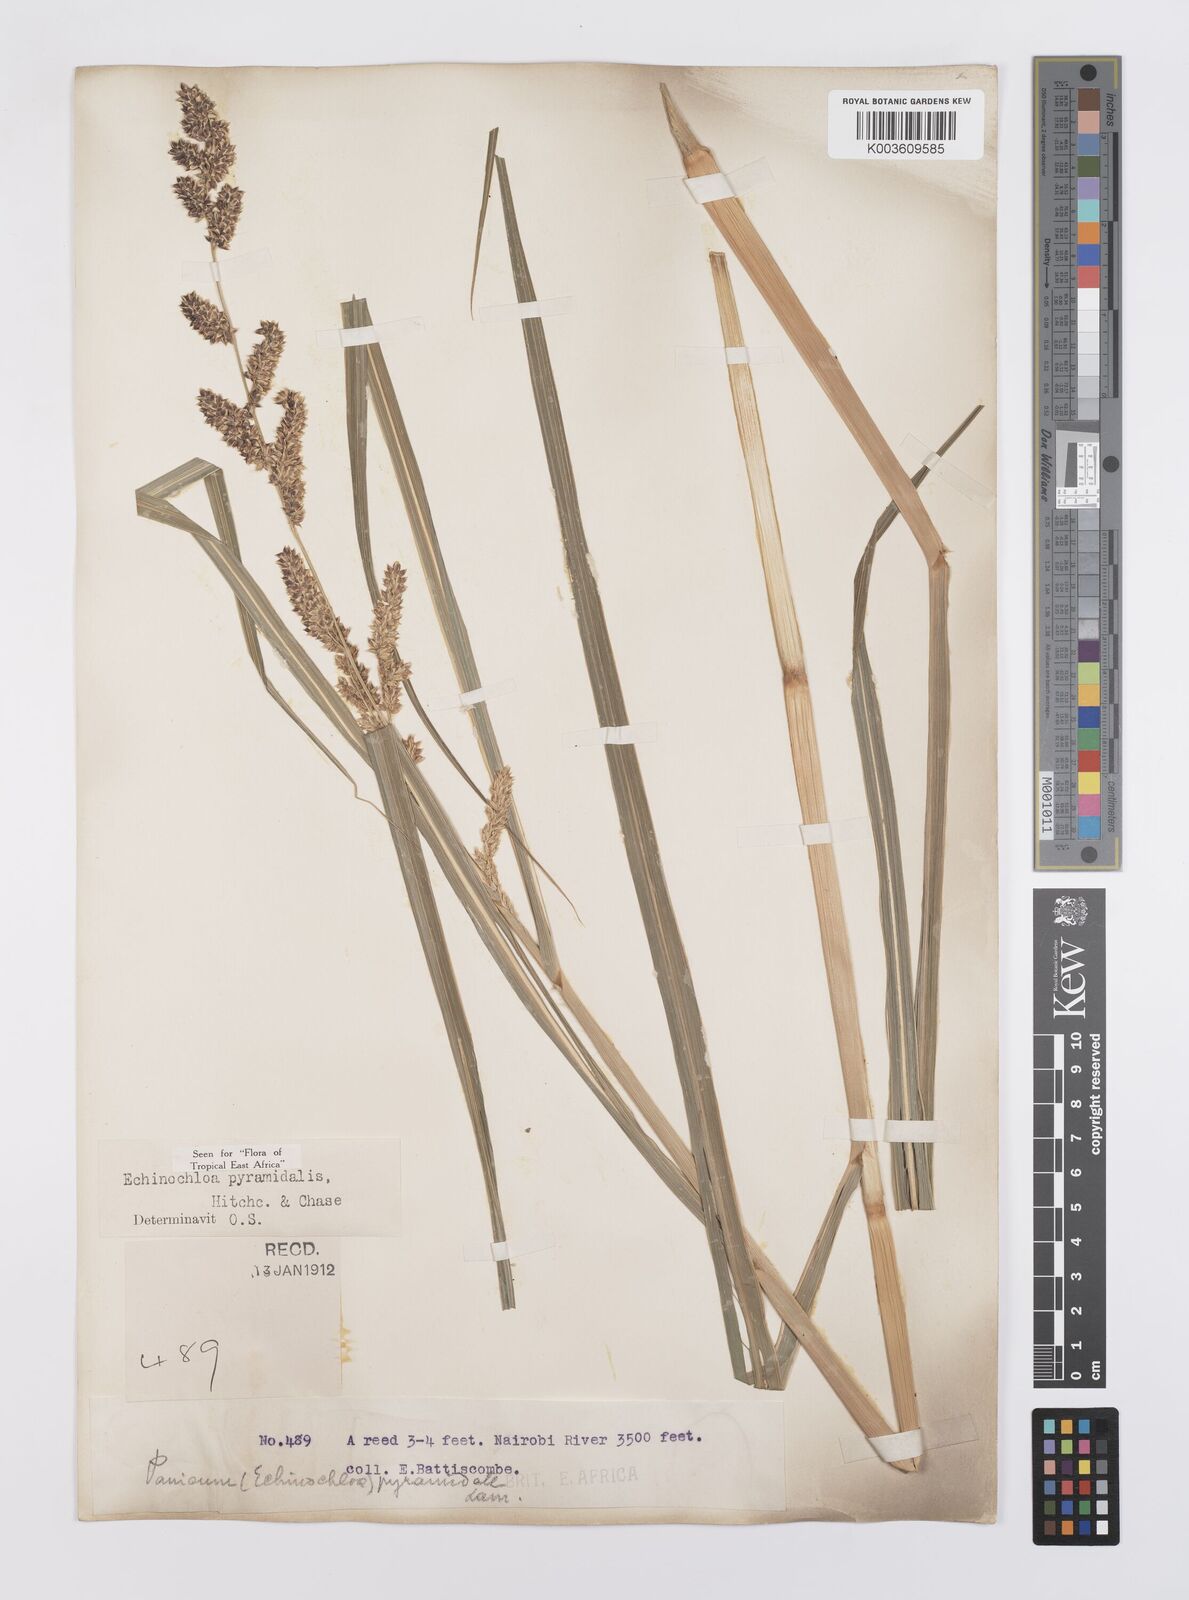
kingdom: Plantae
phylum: Tracheophyta
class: Liliopsida
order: Poales
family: Poaceae
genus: Echinochloa
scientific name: Echinochloa pyramidalis
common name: Antelope grass
